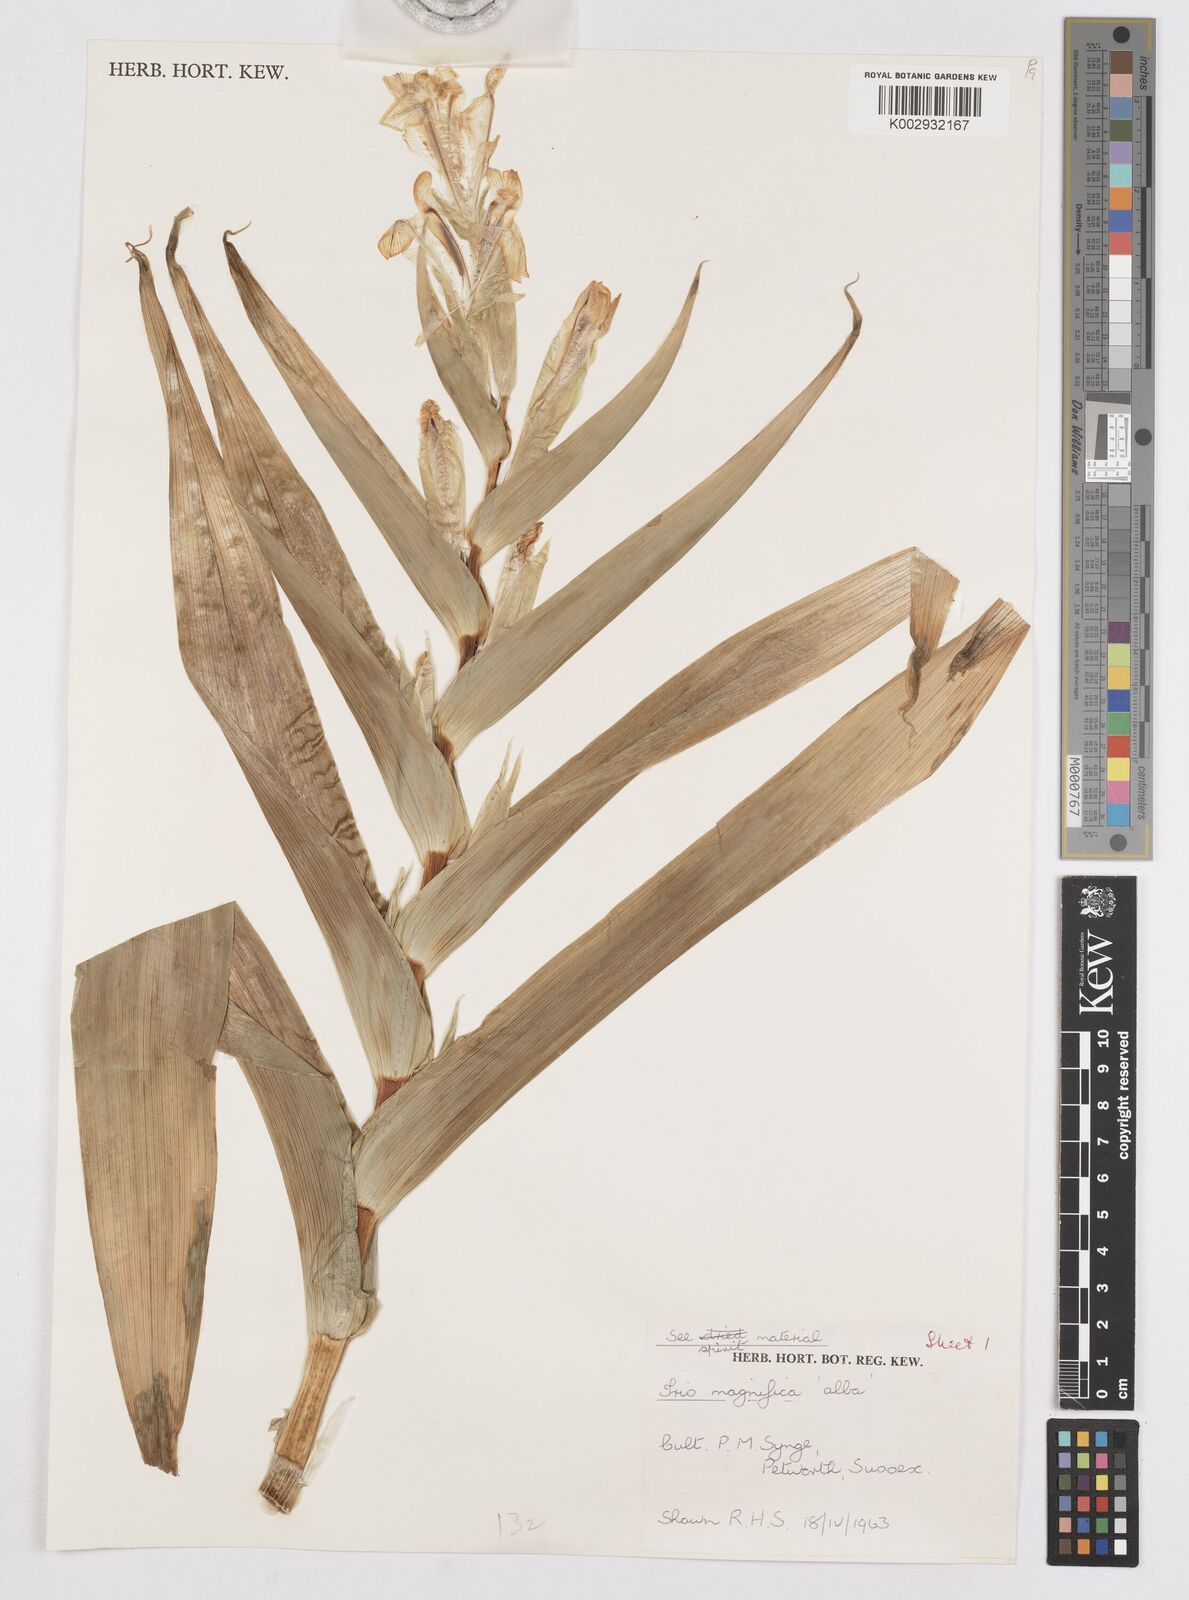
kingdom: Plantae
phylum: Tracheophyta
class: Liliopsida
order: Asparagales
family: Iridaceae
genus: Iris
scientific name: Iris magnifica
